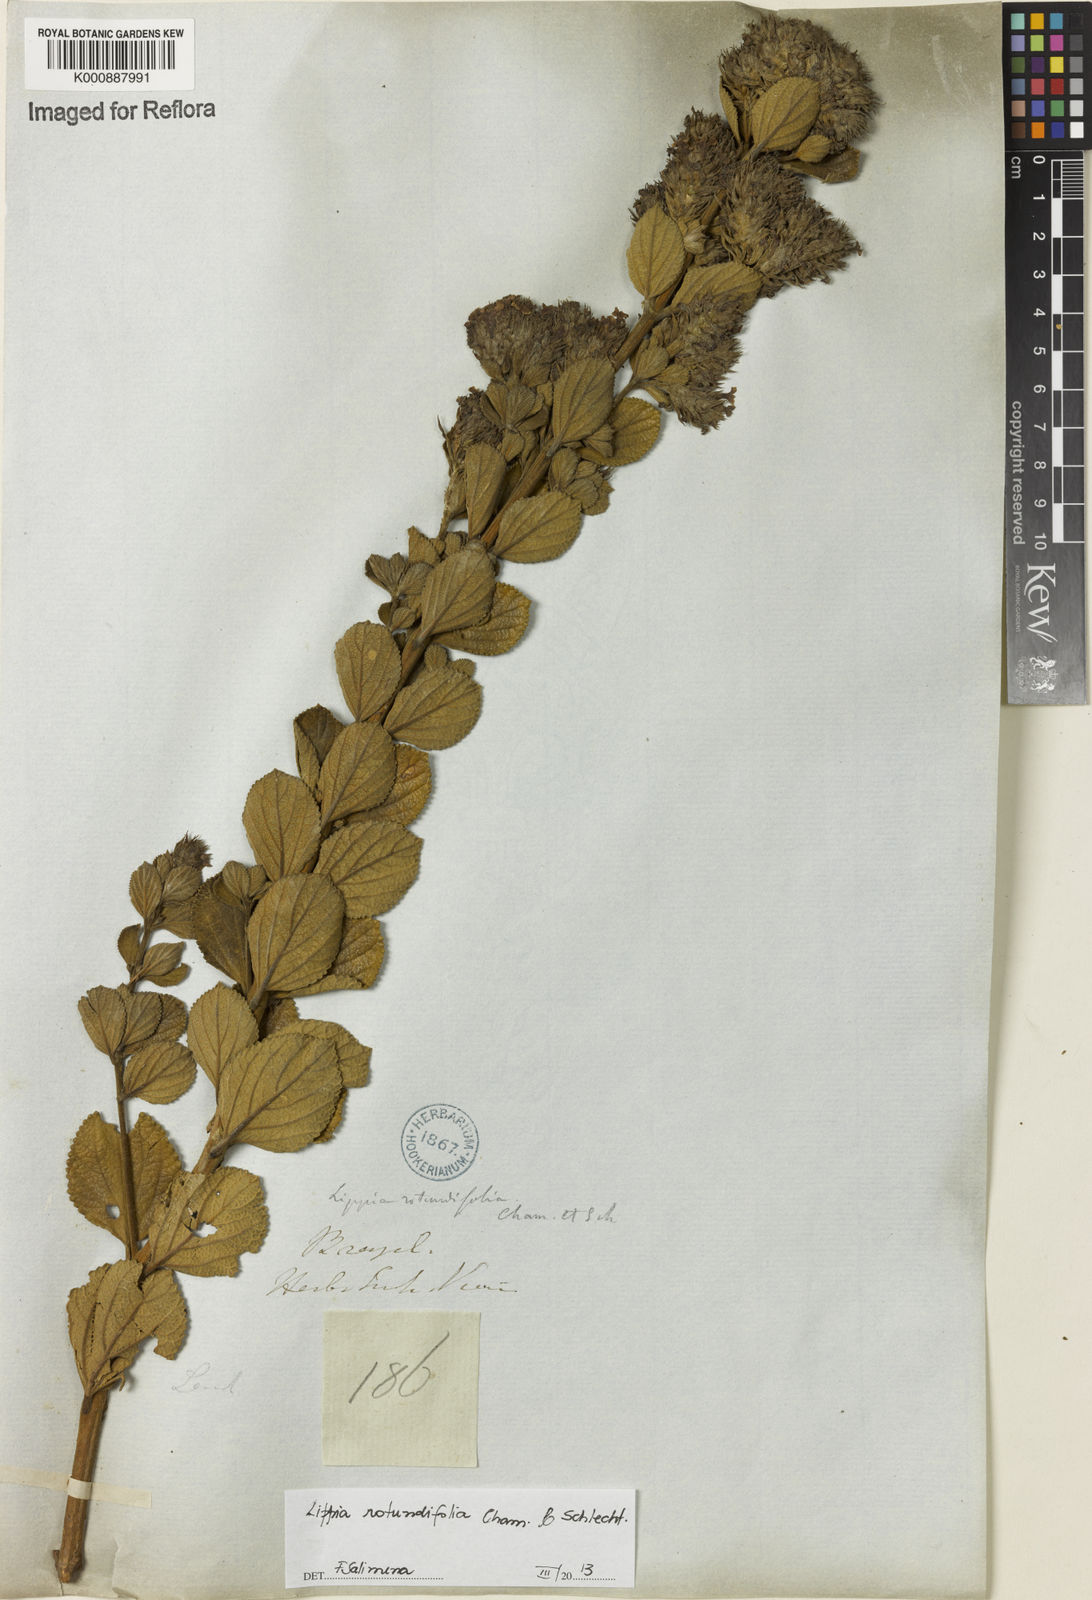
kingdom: Plantae
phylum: Tracheophyta
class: Magnoliopsida
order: Lamiales
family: Verbenaceae
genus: Lippia
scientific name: Lippia rotundifolia
